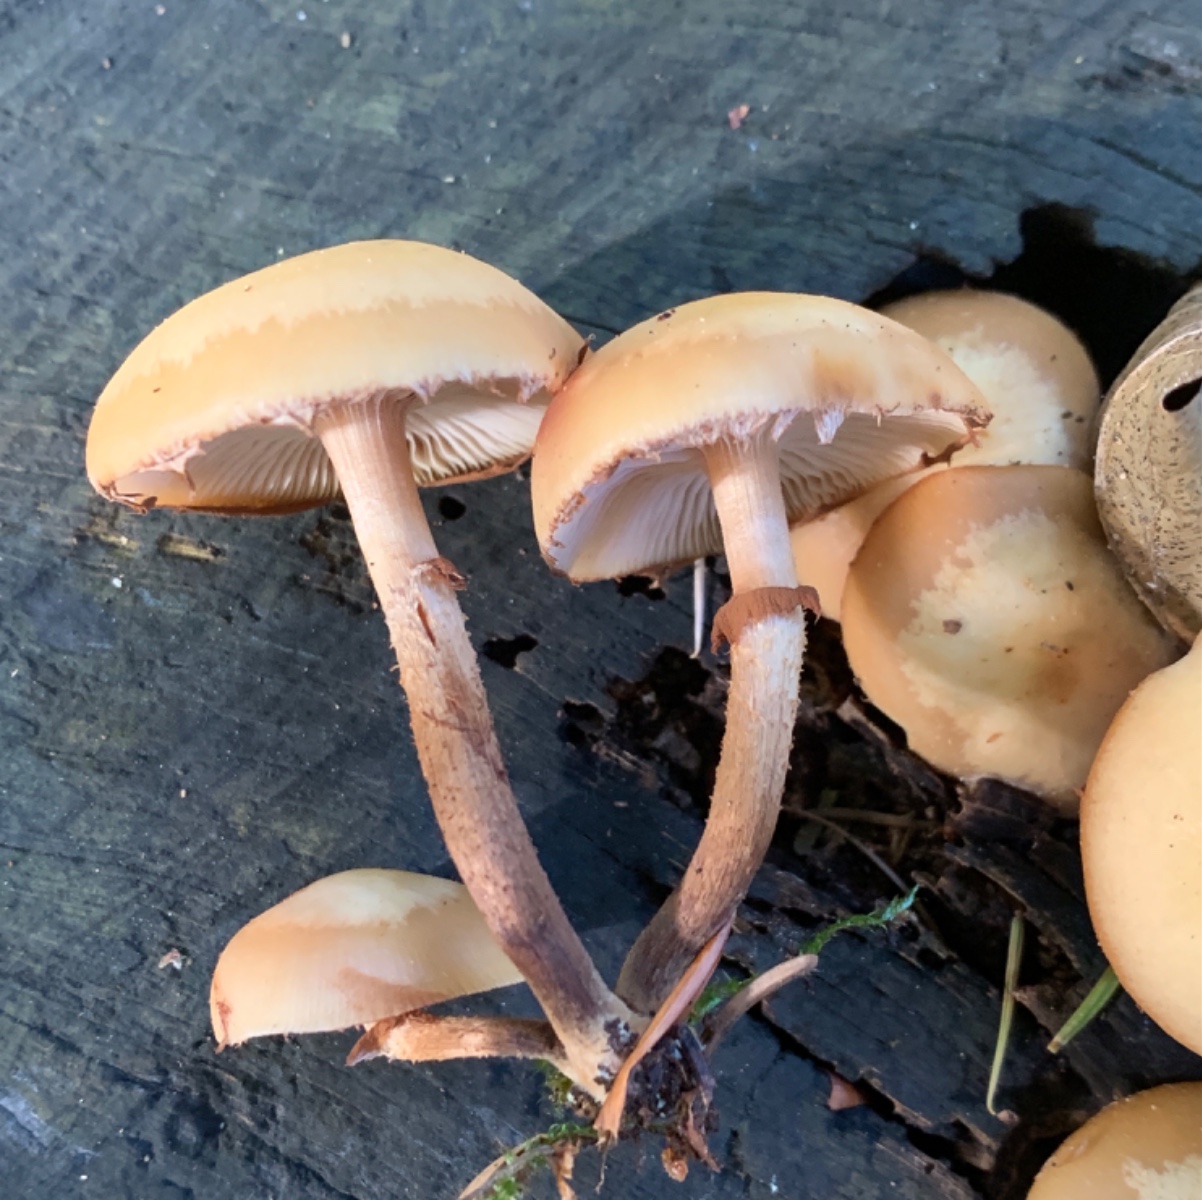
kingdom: Fungi
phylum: Basidiomycota
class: Agaricomycetes
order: Agaricales
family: Strophariaceae
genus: Kuehneromyces
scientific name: Kuehneromyces mutabilis
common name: foranderlig skælhat
